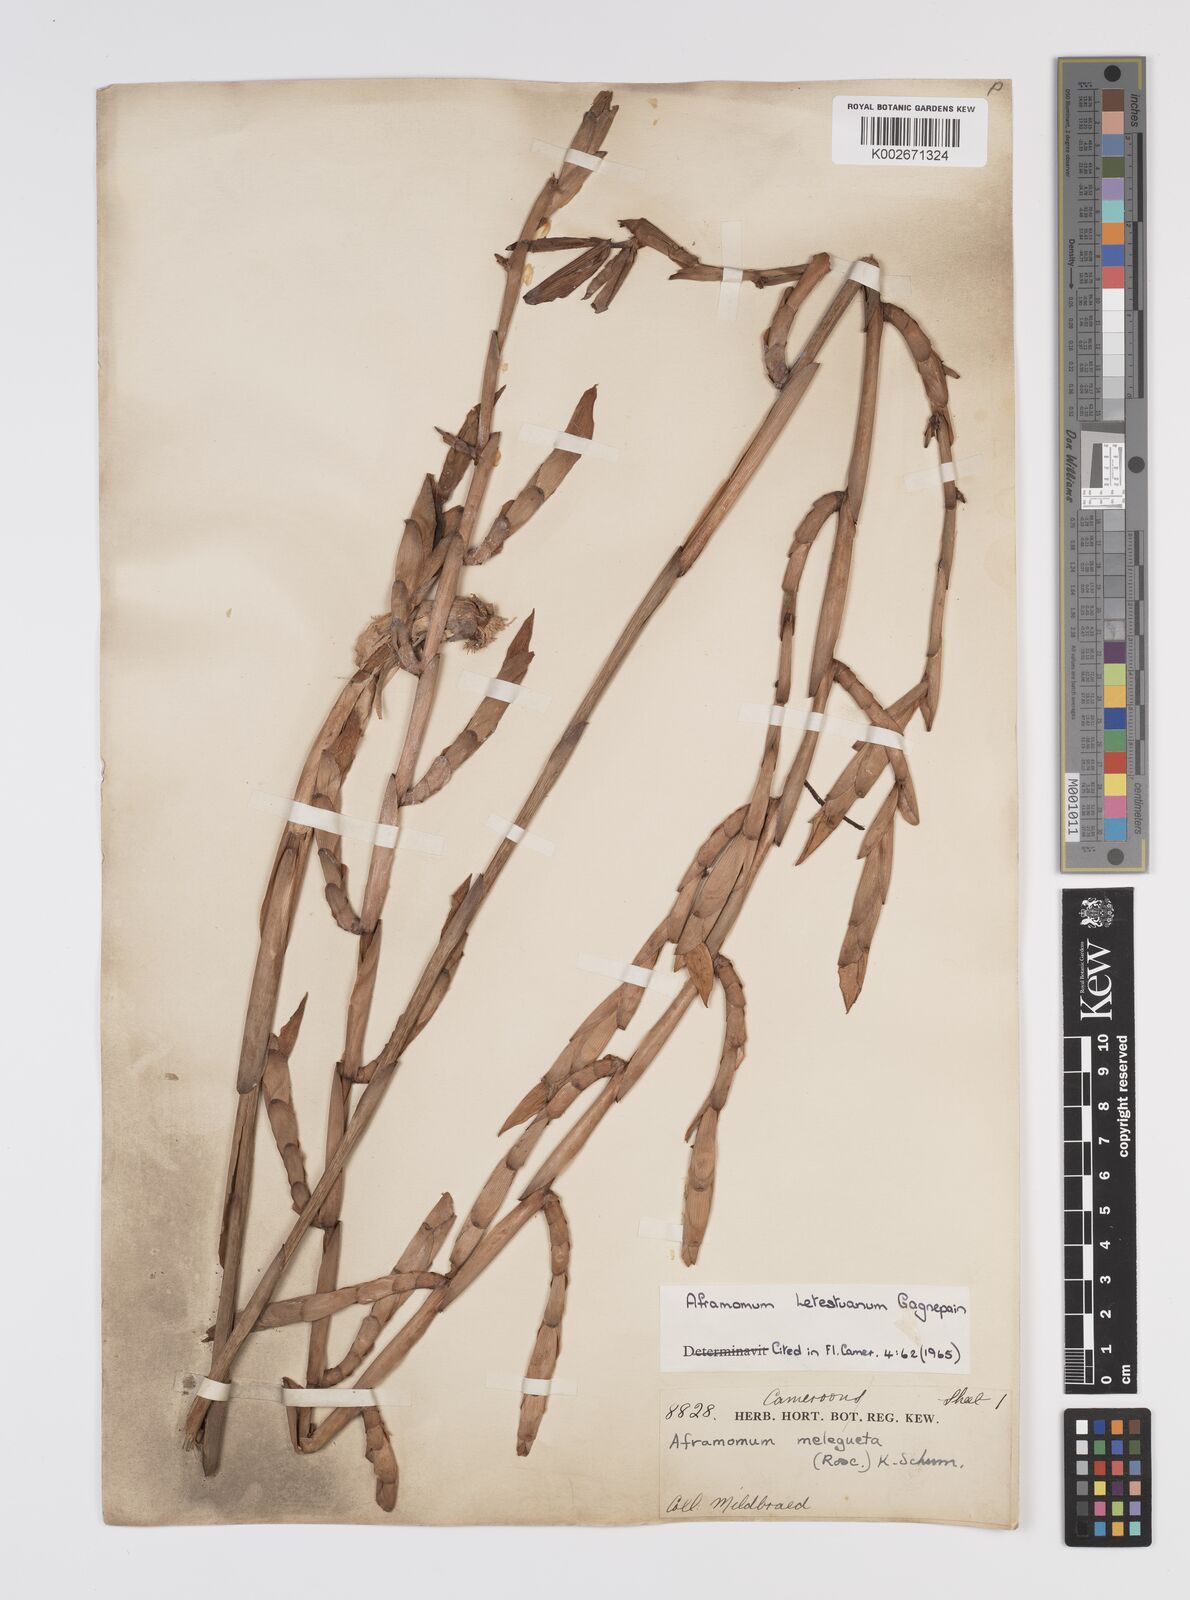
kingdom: Plantae
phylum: Tracheophyta
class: Liliopsida
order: Zingiberales
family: Zingiberaceae
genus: Aframomum
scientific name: Aframomum letestuanum
